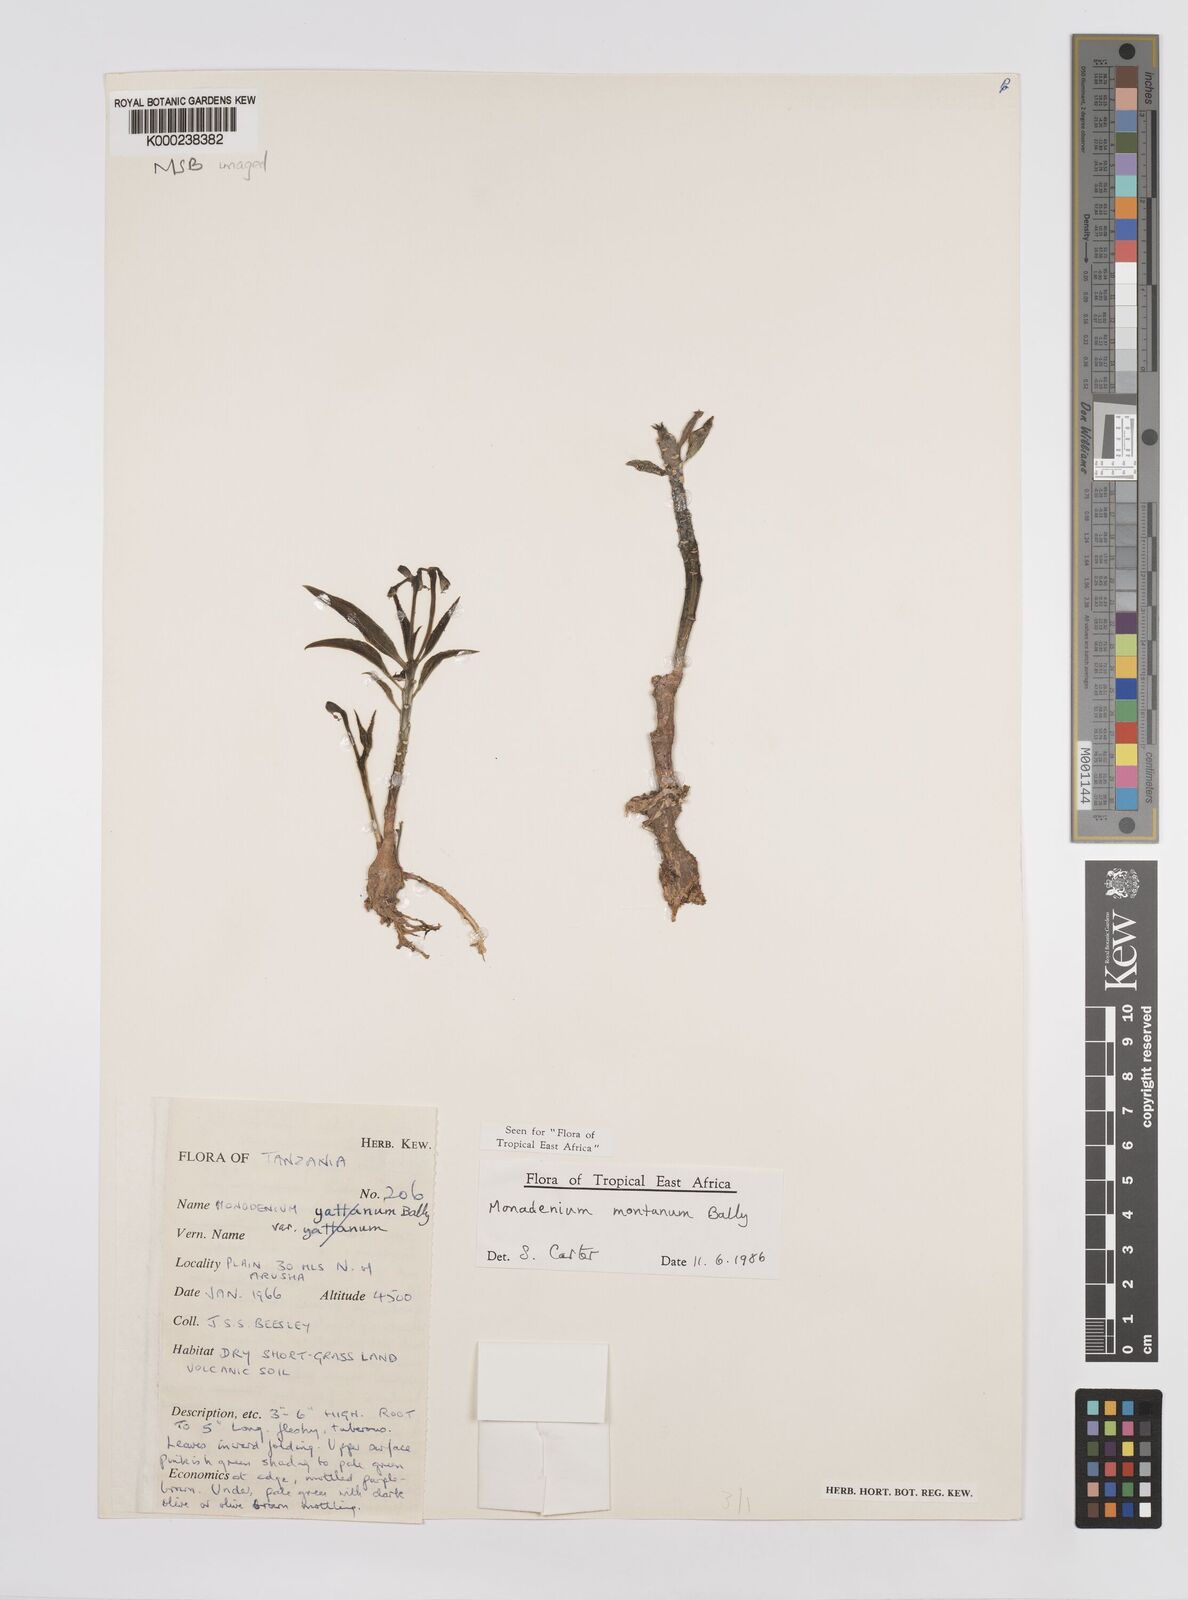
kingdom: Plantae
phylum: Tracheophyta
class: Magnoliopsida
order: Malpighiales
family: Euphorbiaceae
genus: Euphorbia
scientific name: Euphorbia neomontana
